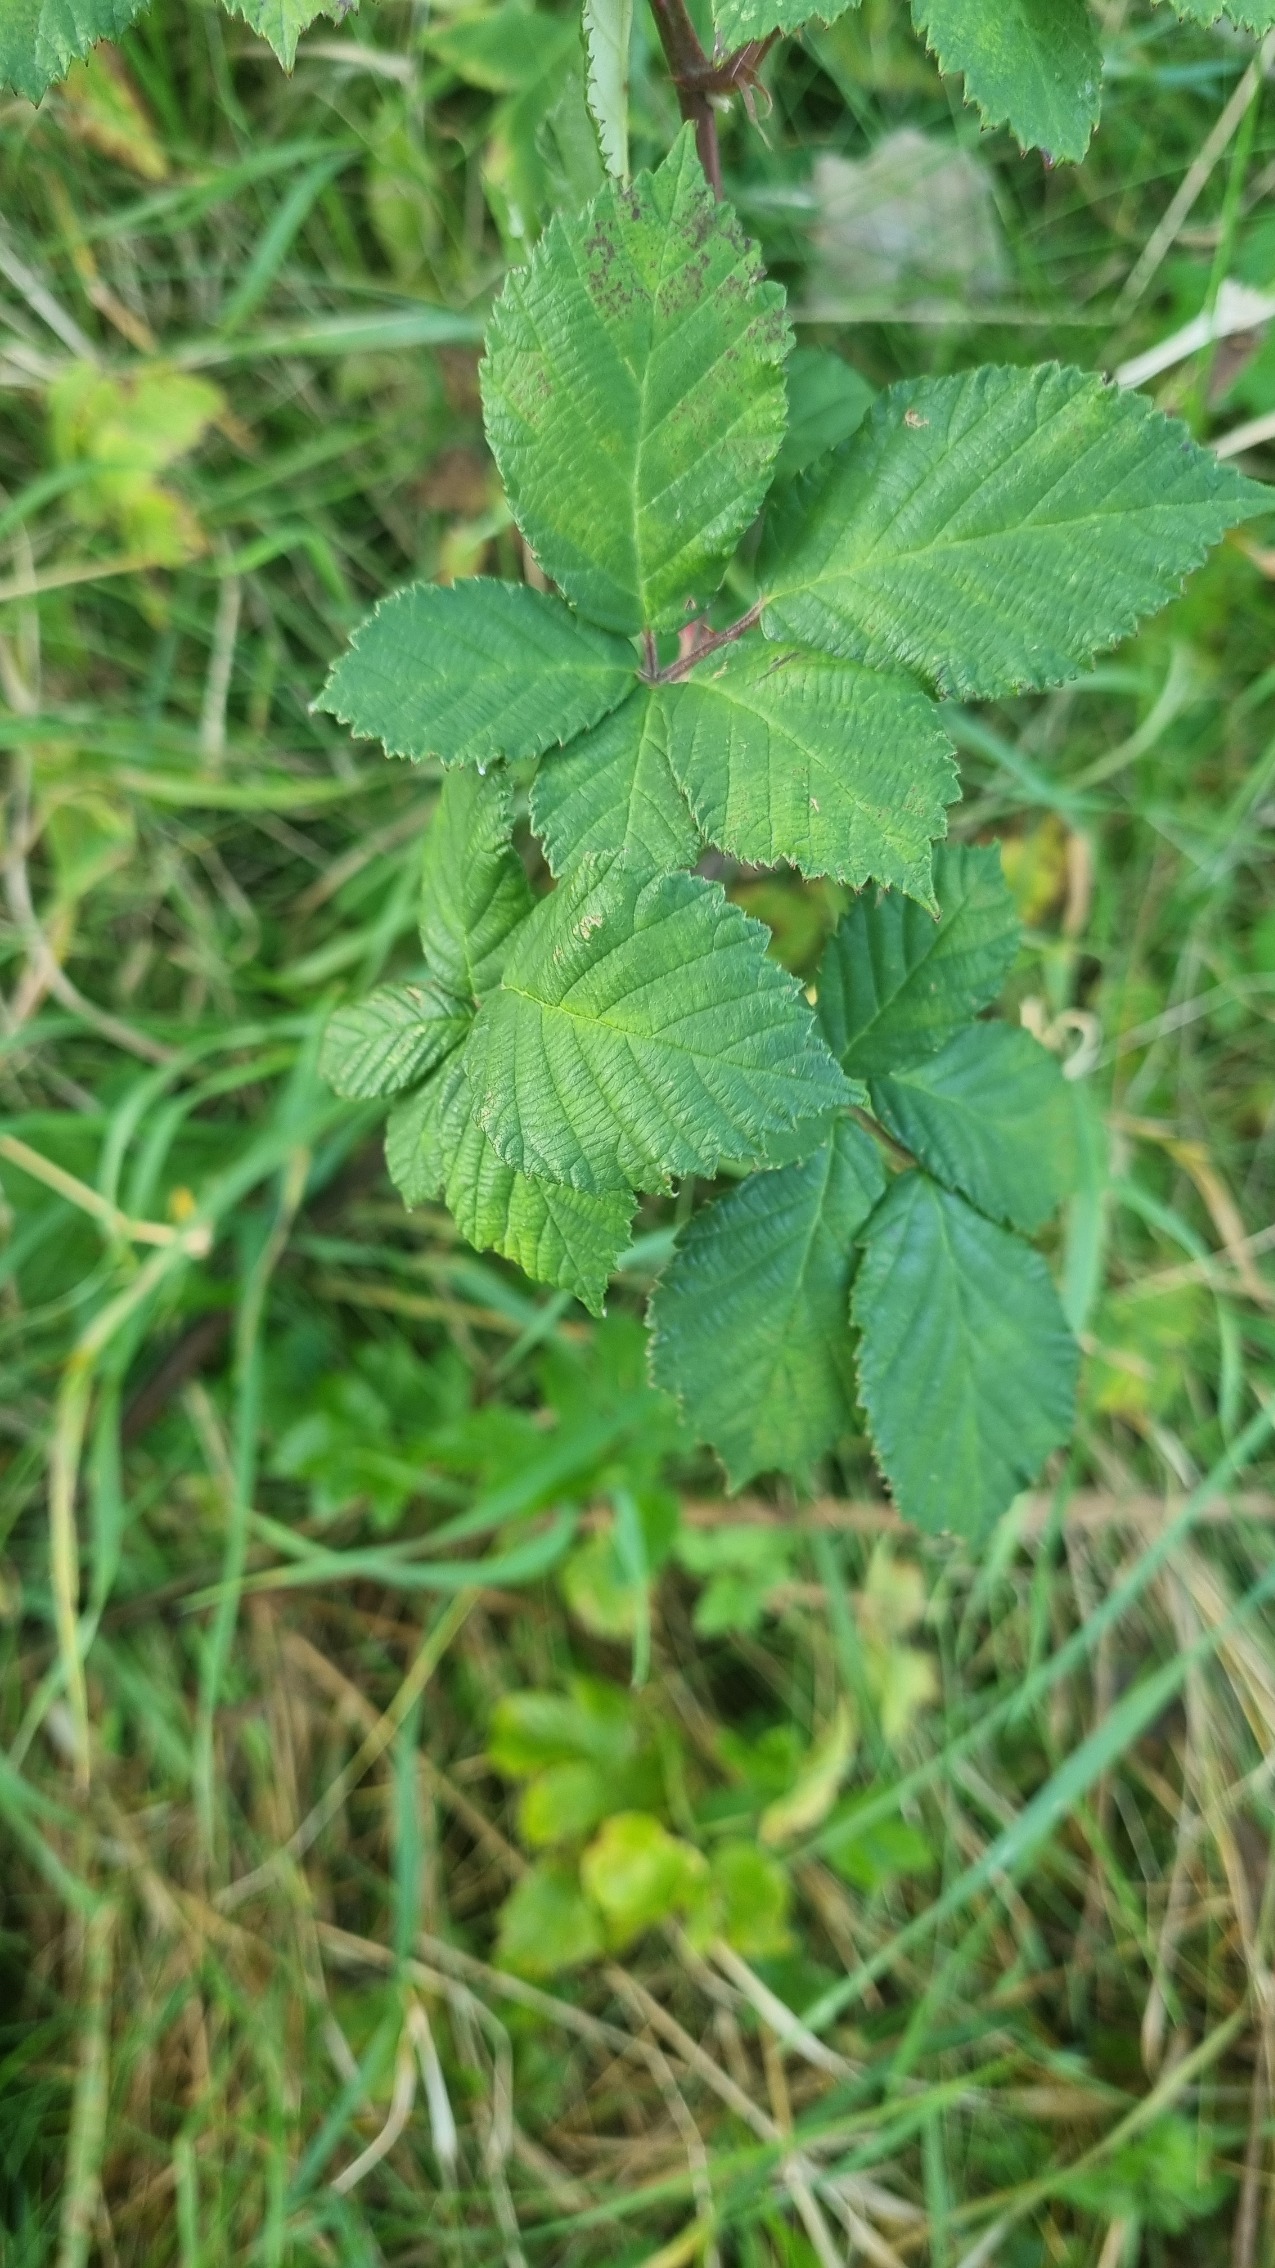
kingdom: Plantae
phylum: Tracheophyta
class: Magnoliopsida
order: Rosales
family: Rosaceae
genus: Rubus
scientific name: Rubus armeniacus
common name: Armensk brombær
